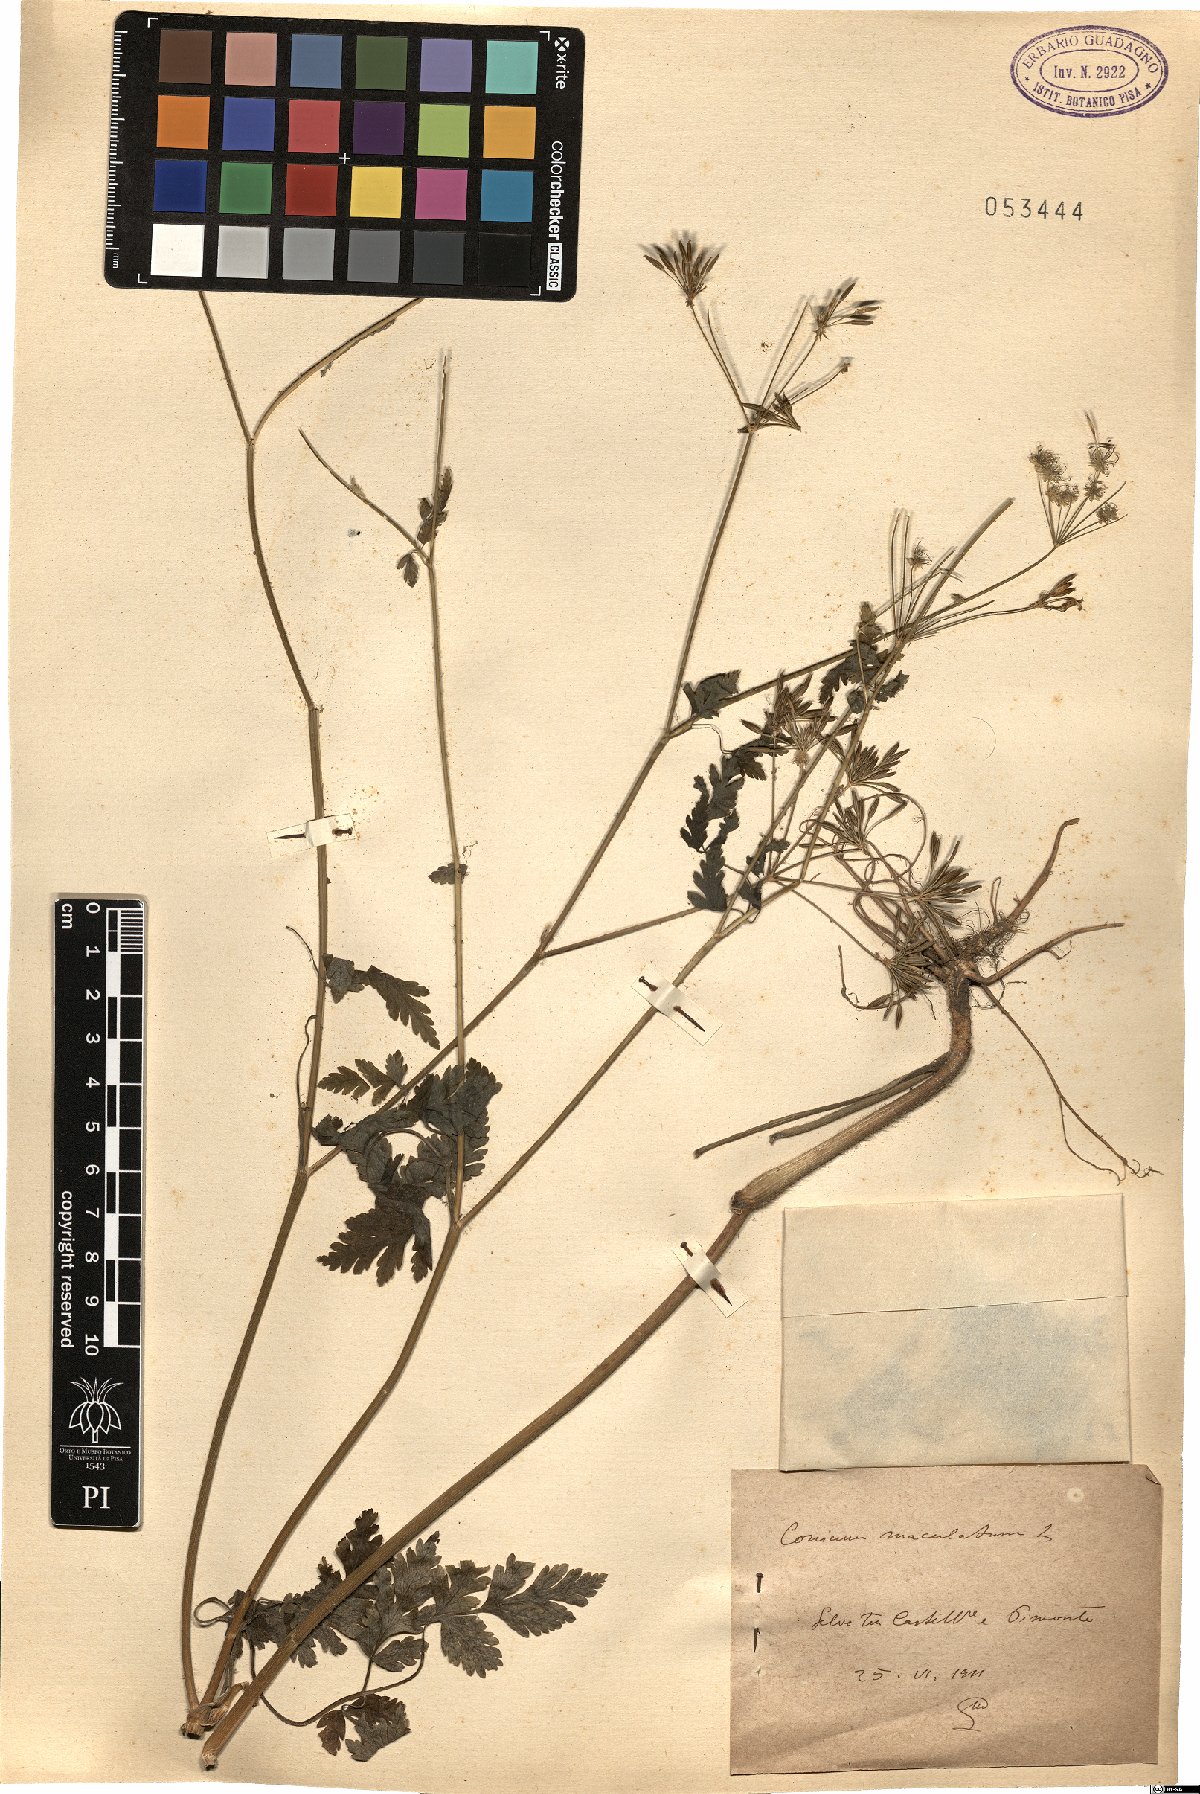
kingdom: Plantae
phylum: Tracheophyta
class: Magnoliopsida
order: Apiales
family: Apiaceae
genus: Conium
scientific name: Conium maculatum
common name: Hemlock
